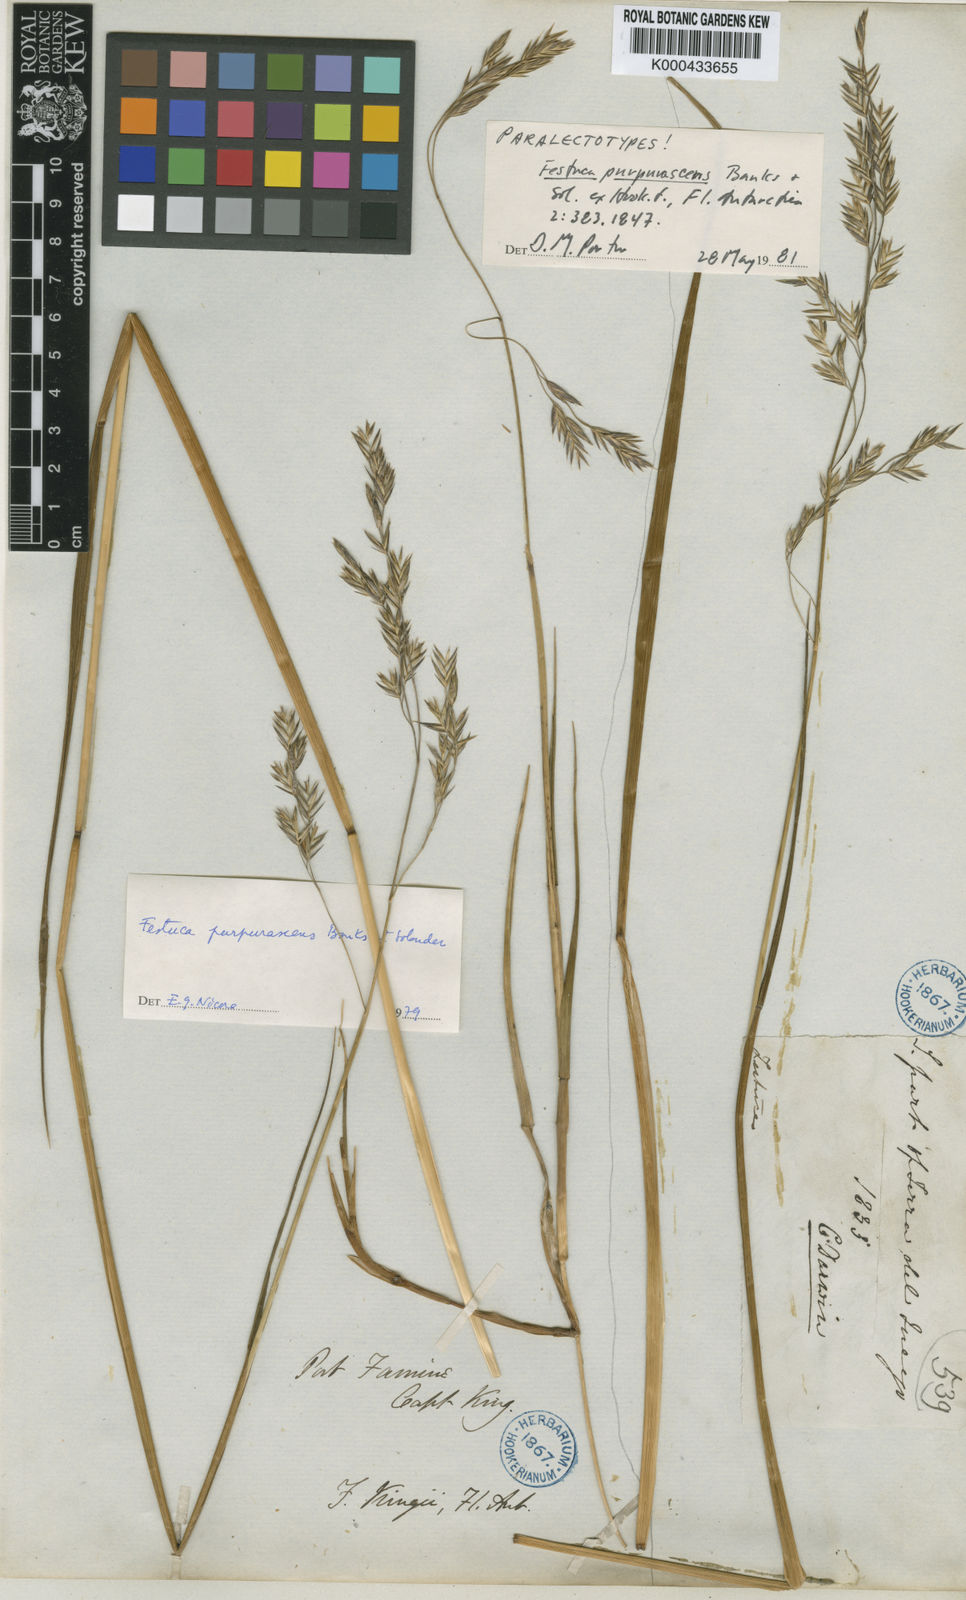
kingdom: Plantae
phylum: Tracheophyta
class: Liliopsida
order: Poales
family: Poaceae
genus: Festuca
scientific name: Festuca purpurascens
